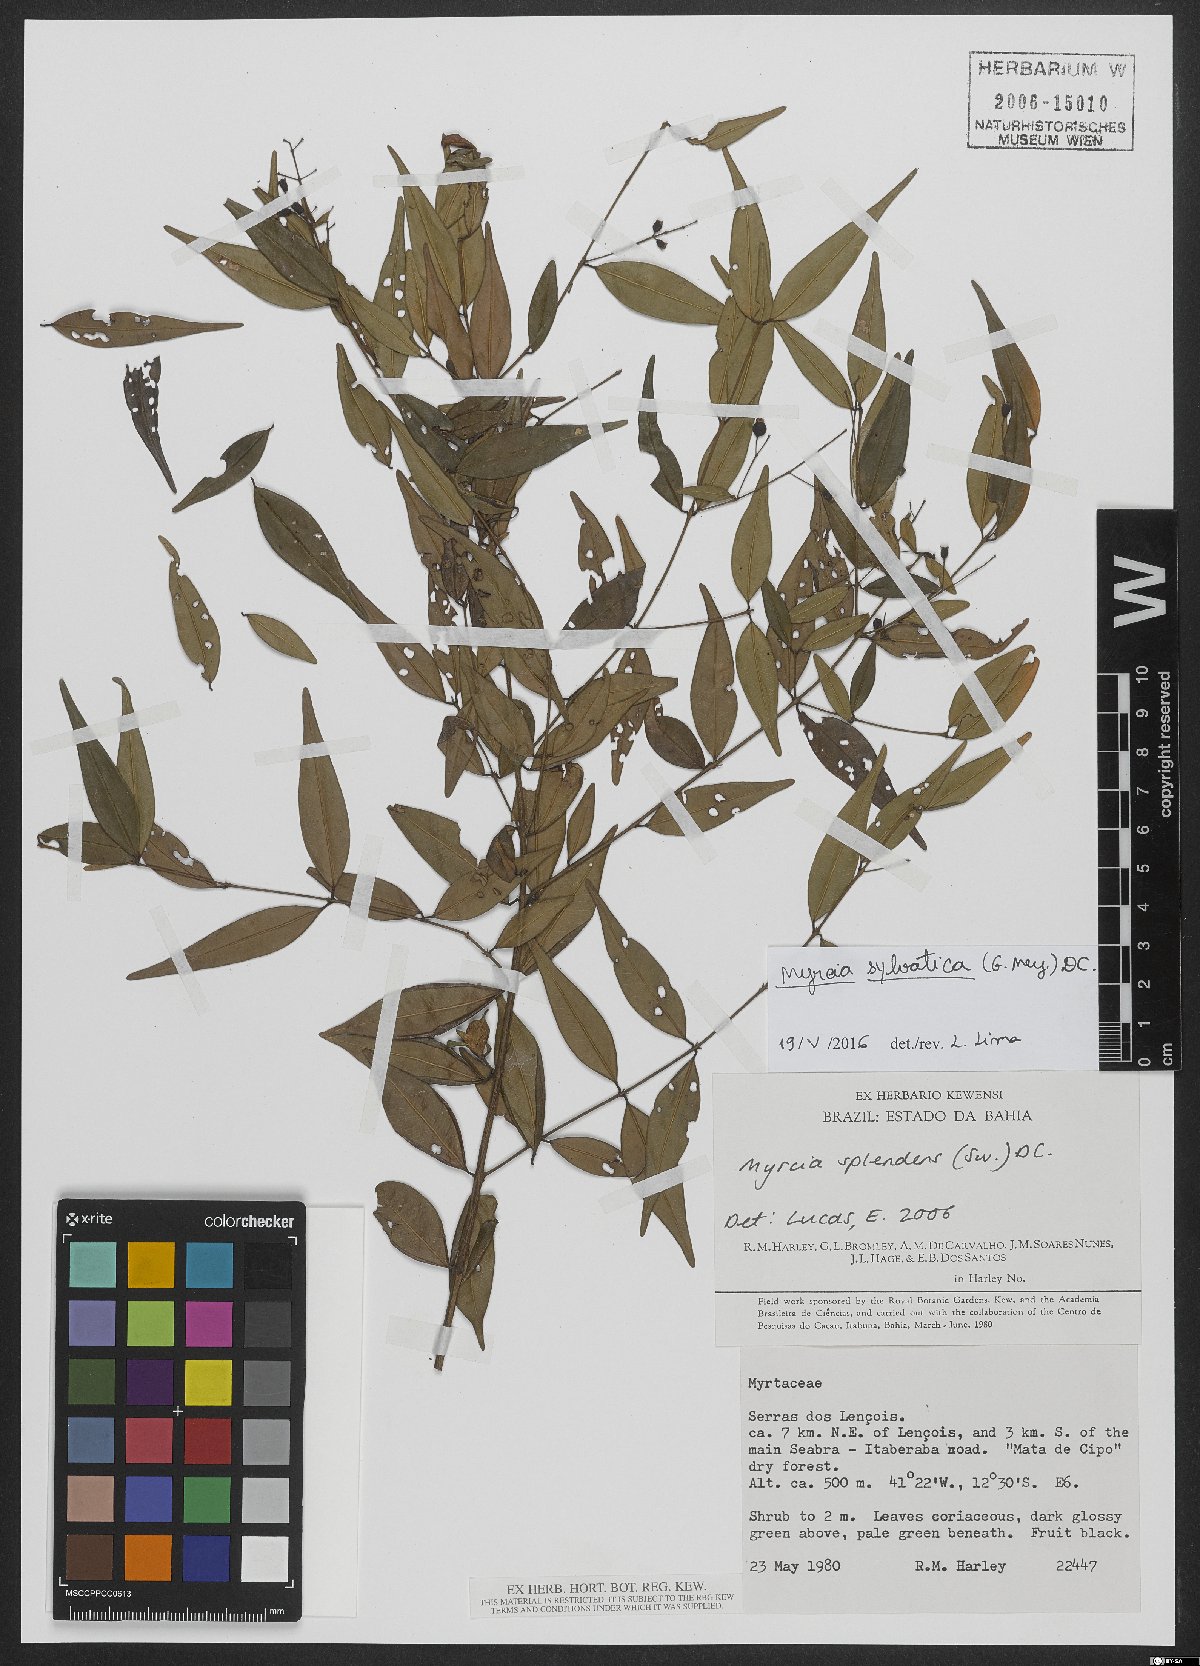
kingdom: Plantae
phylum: Tracheophyta
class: Magnoliopsida
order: Myrtales
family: Myrtaceae
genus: Myrcia
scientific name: Myrcia sylvatica
